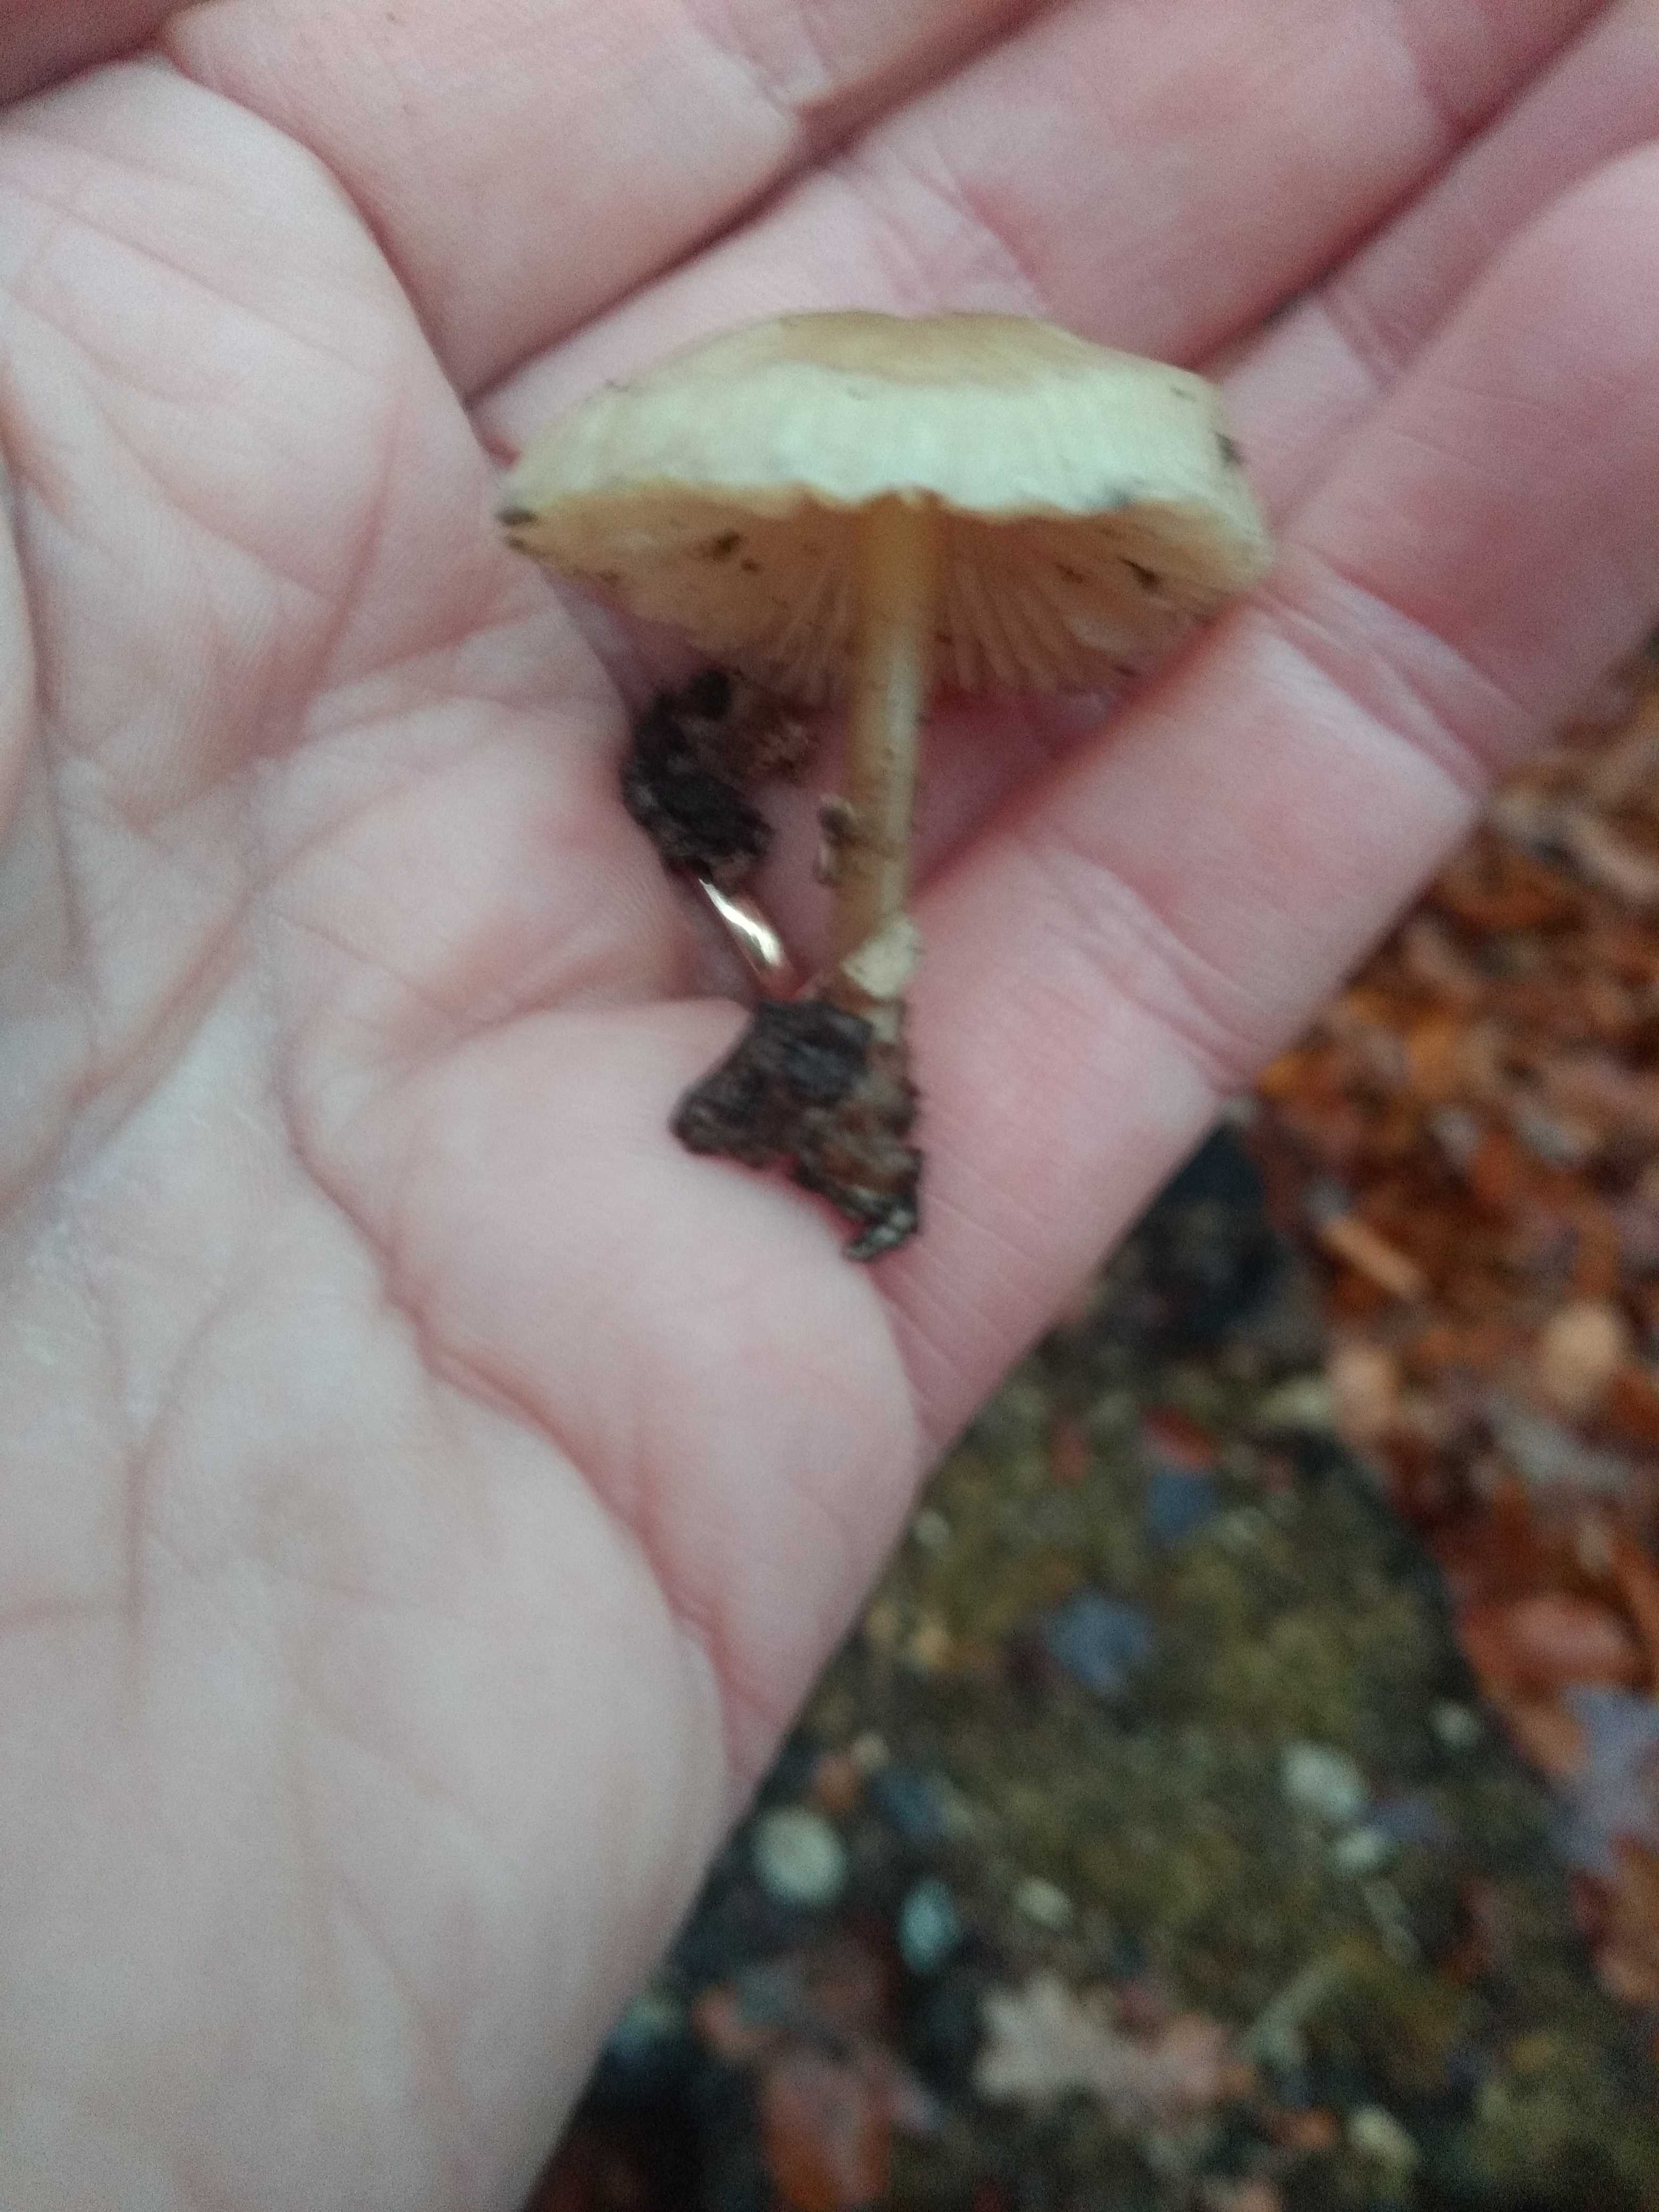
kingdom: Fungi
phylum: Basidiomycota
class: Agaricomycetes
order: Agaricales
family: Mycenaceae
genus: Mycena
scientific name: Mycena
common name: huesvamp
